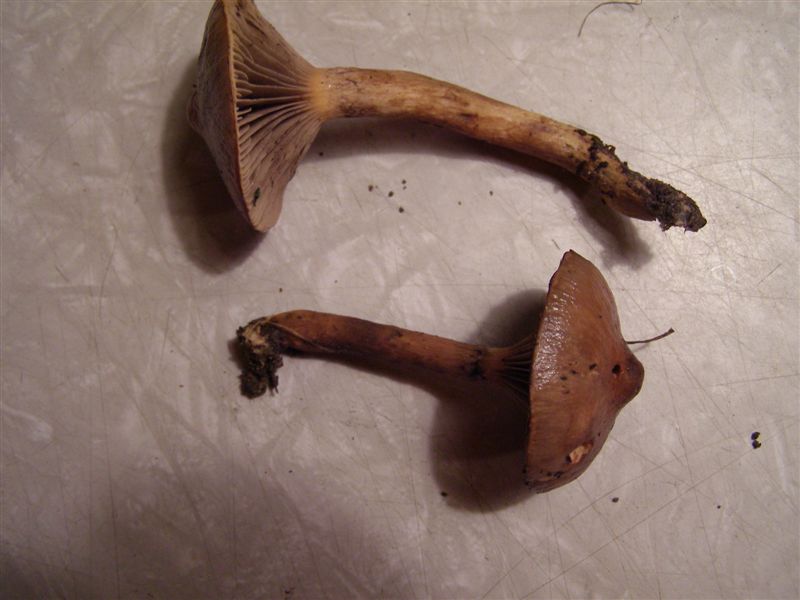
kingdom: Fungi
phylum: Basidiomycota
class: Agaricomycetes
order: Boletales
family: Gomphidiaceae
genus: Chroogomphus
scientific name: Chroogomphus rutilus
